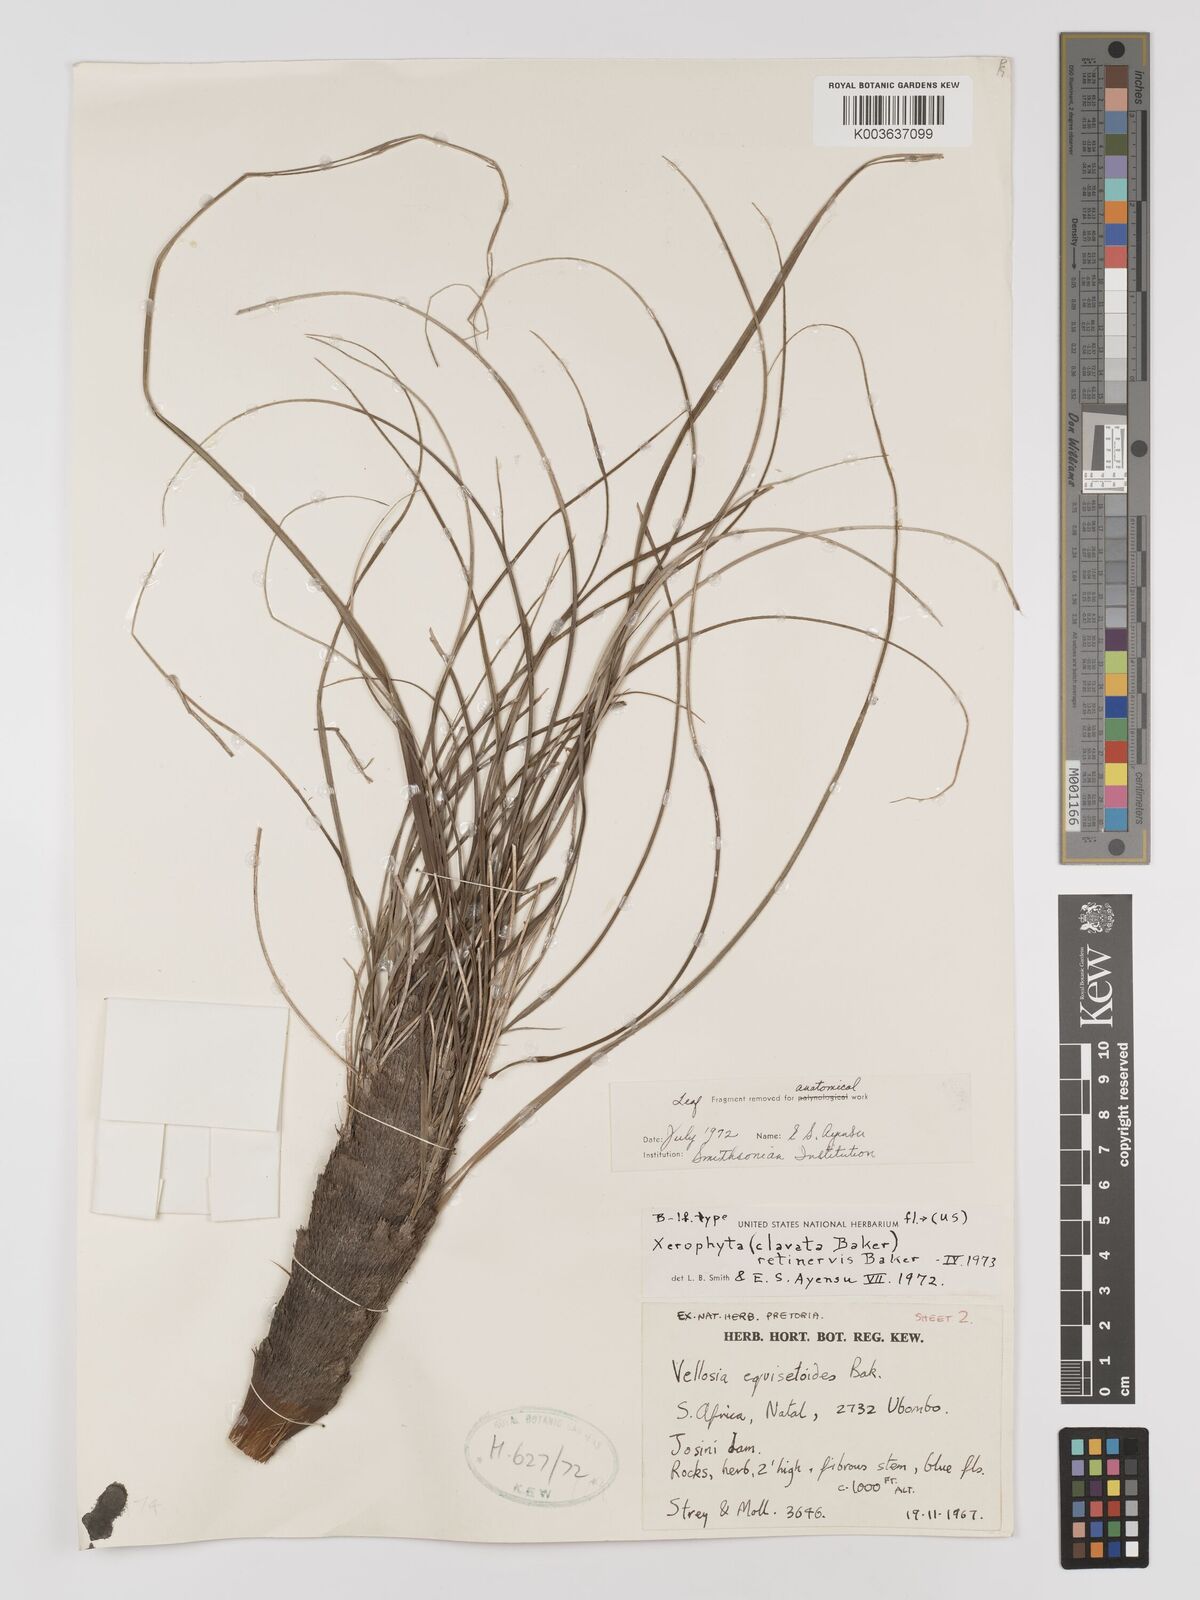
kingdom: Plantae
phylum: Tracheophyta
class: Liliopsida
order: Pandanales
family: Velloziaceae
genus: Xerophyta
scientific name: Xerophyta retinervis
